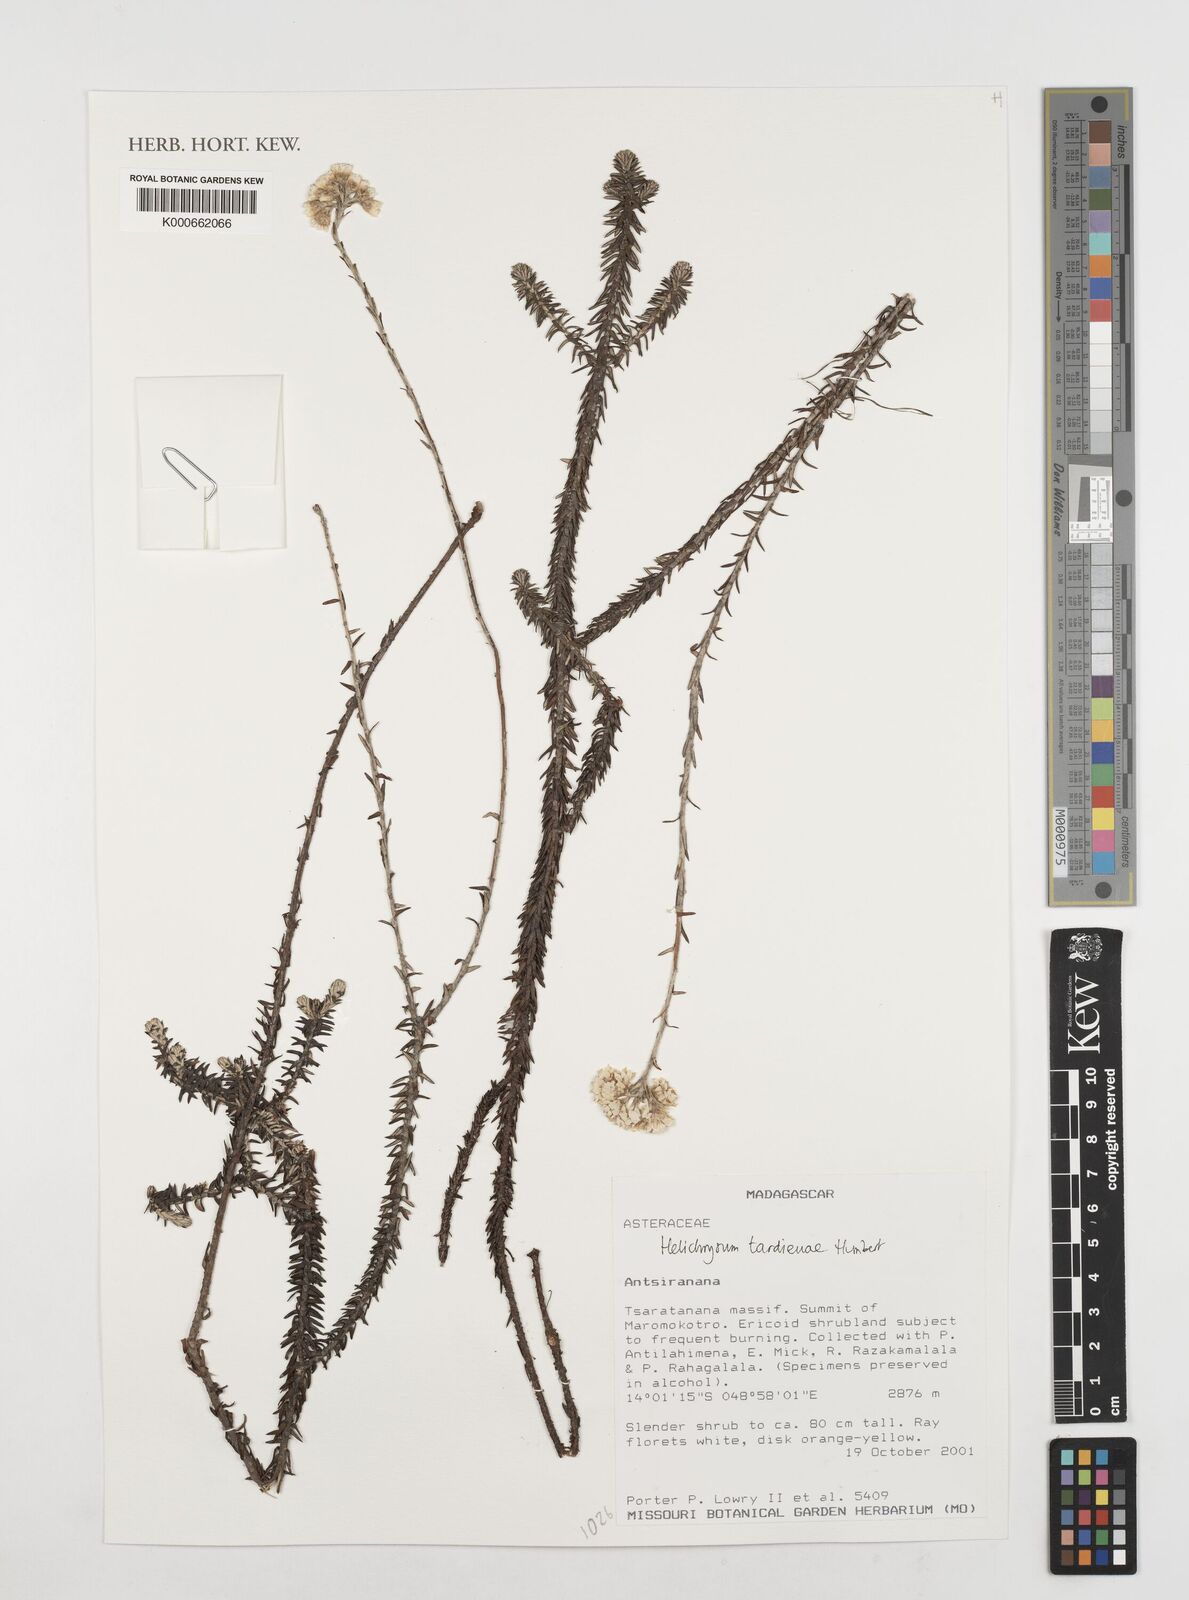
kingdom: Plantae
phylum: Tracheophyta
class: Magnoliopsida
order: Asterales
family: Asteraceae
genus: Helichrysum
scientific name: Helichrysum tardieuae
